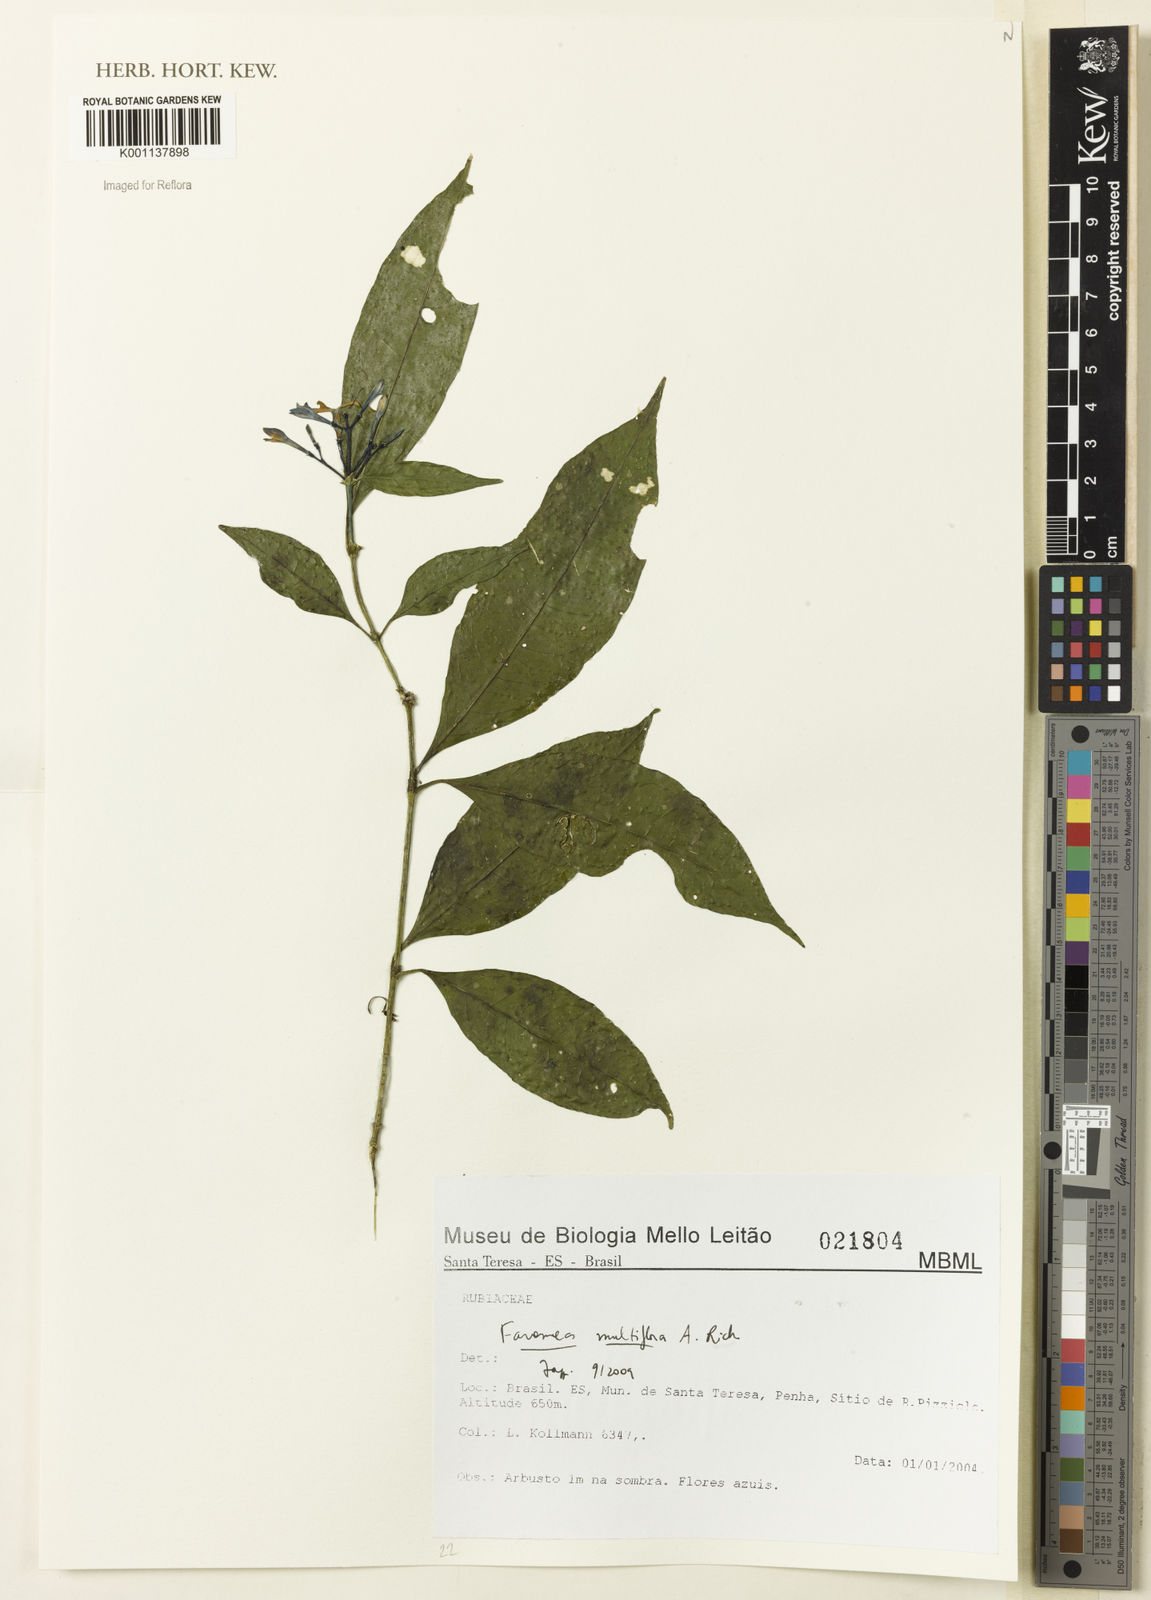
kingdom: Plantae
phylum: Tracheophyta
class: Magnoliopsida
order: Gentianales
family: Rubiaceae
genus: Faramea
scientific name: Faramea multiflora
